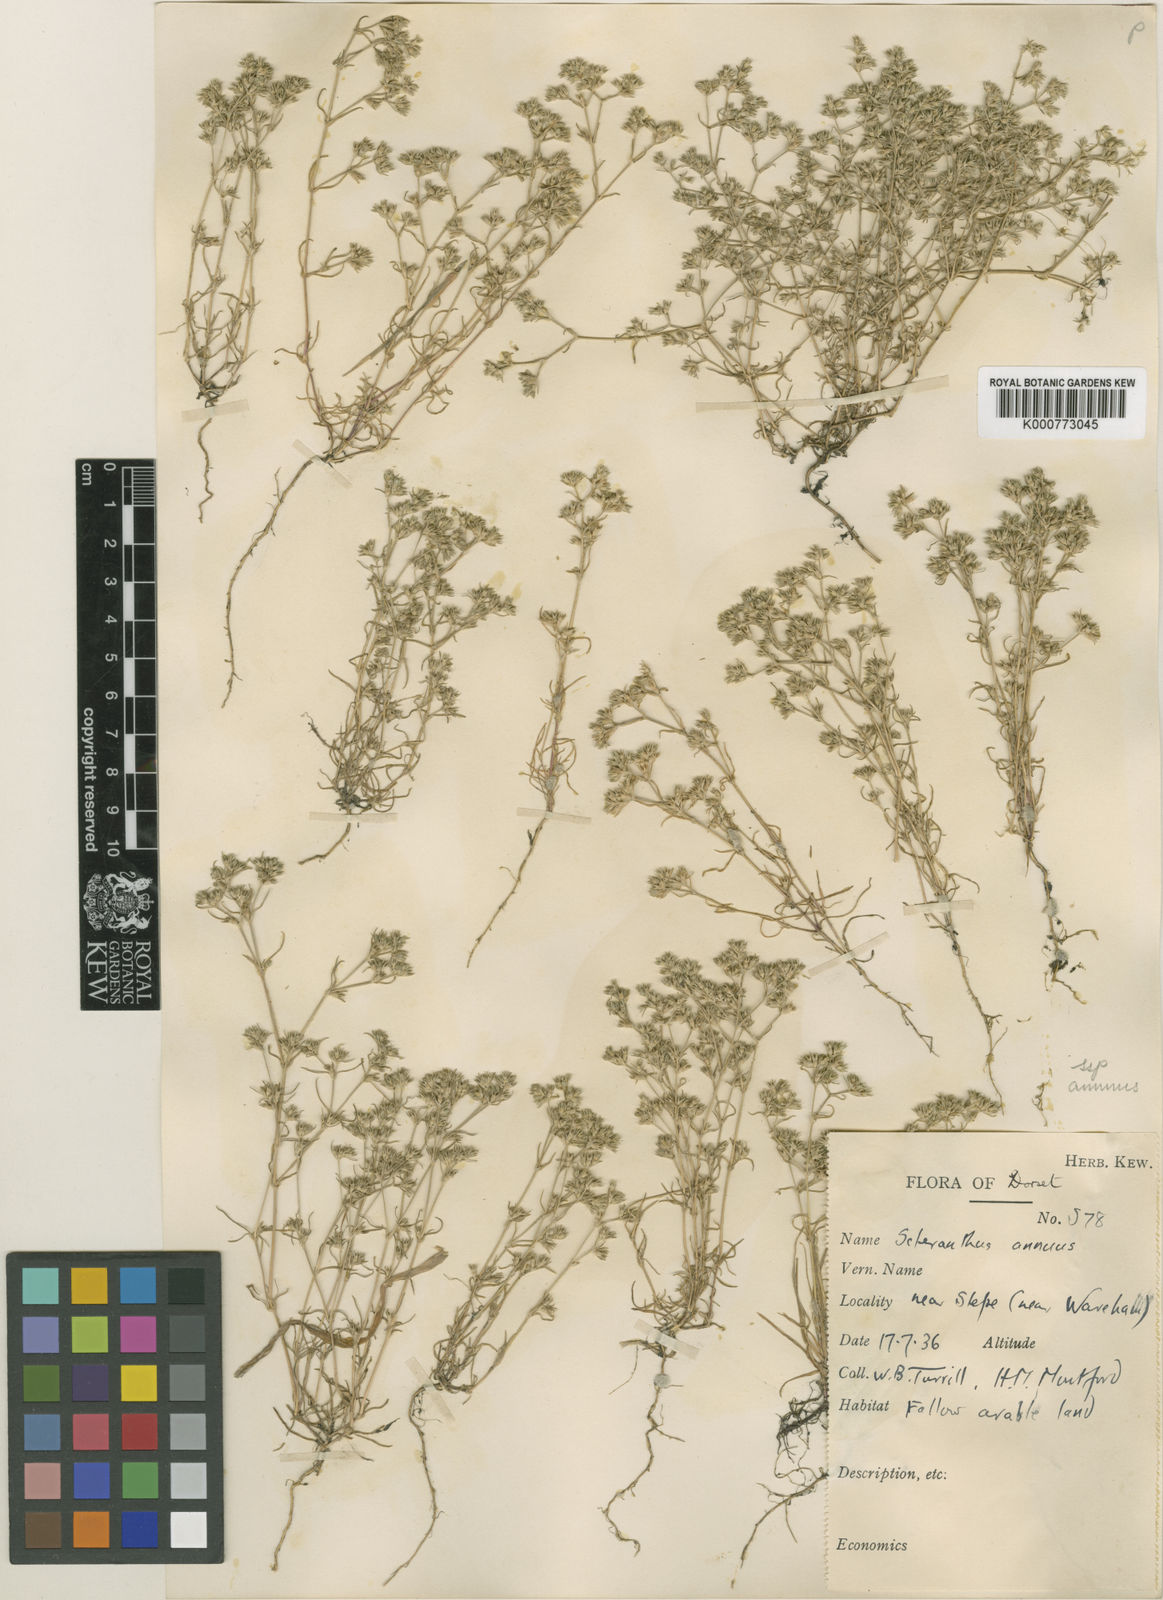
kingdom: Plantae
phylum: Tracheophyta
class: Magnoliopsida
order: Caryophyllales
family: Caryophyllaceae
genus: Scleranthus
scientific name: Scleranthus annuus
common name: Annual knawel
